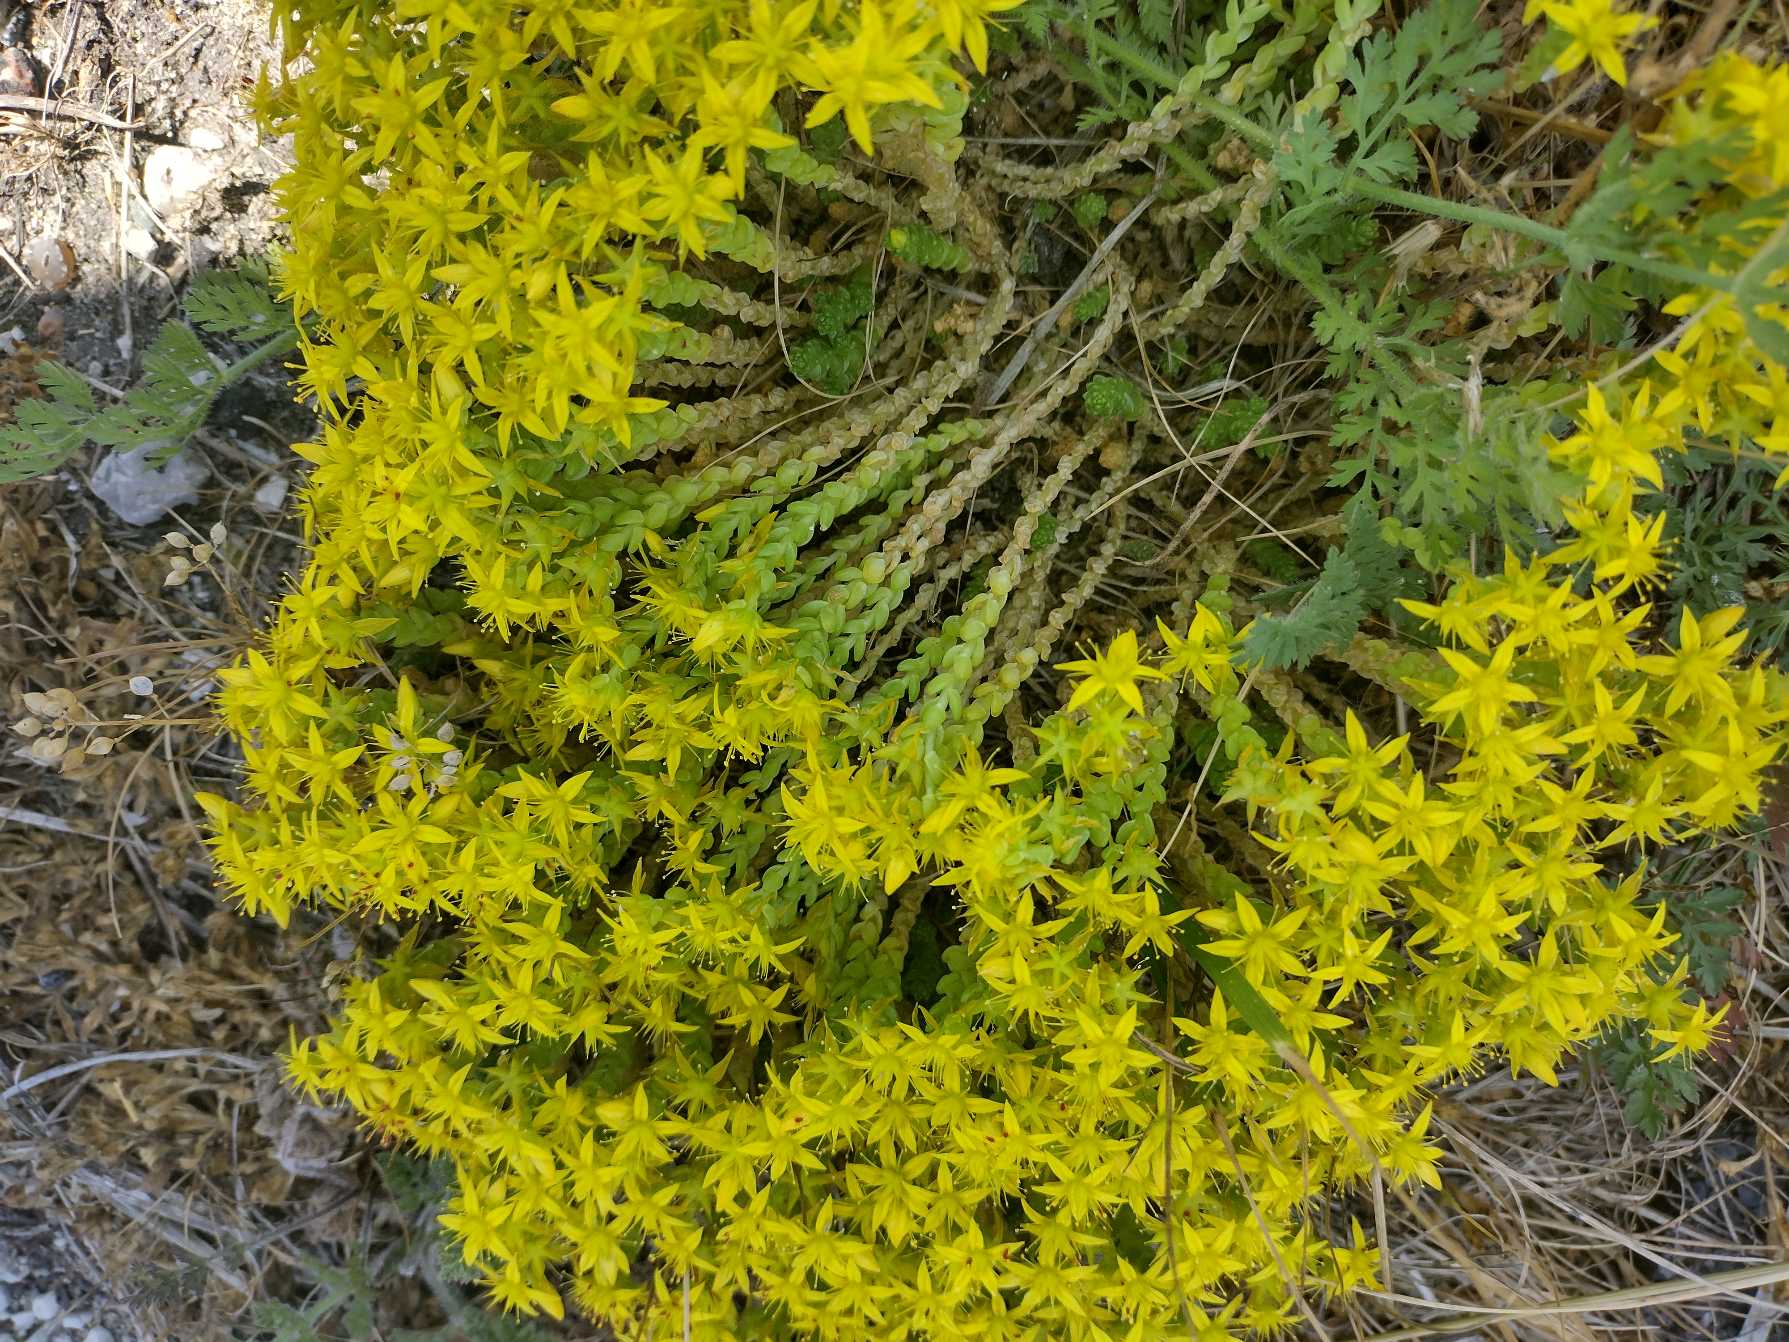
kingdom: Plantae
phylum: Tracheophyta
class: Magnoliopsida
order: Saxifragales
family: Crassulaceae
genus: Sedum
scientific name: Sedum acre
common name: Bidende stenurt
